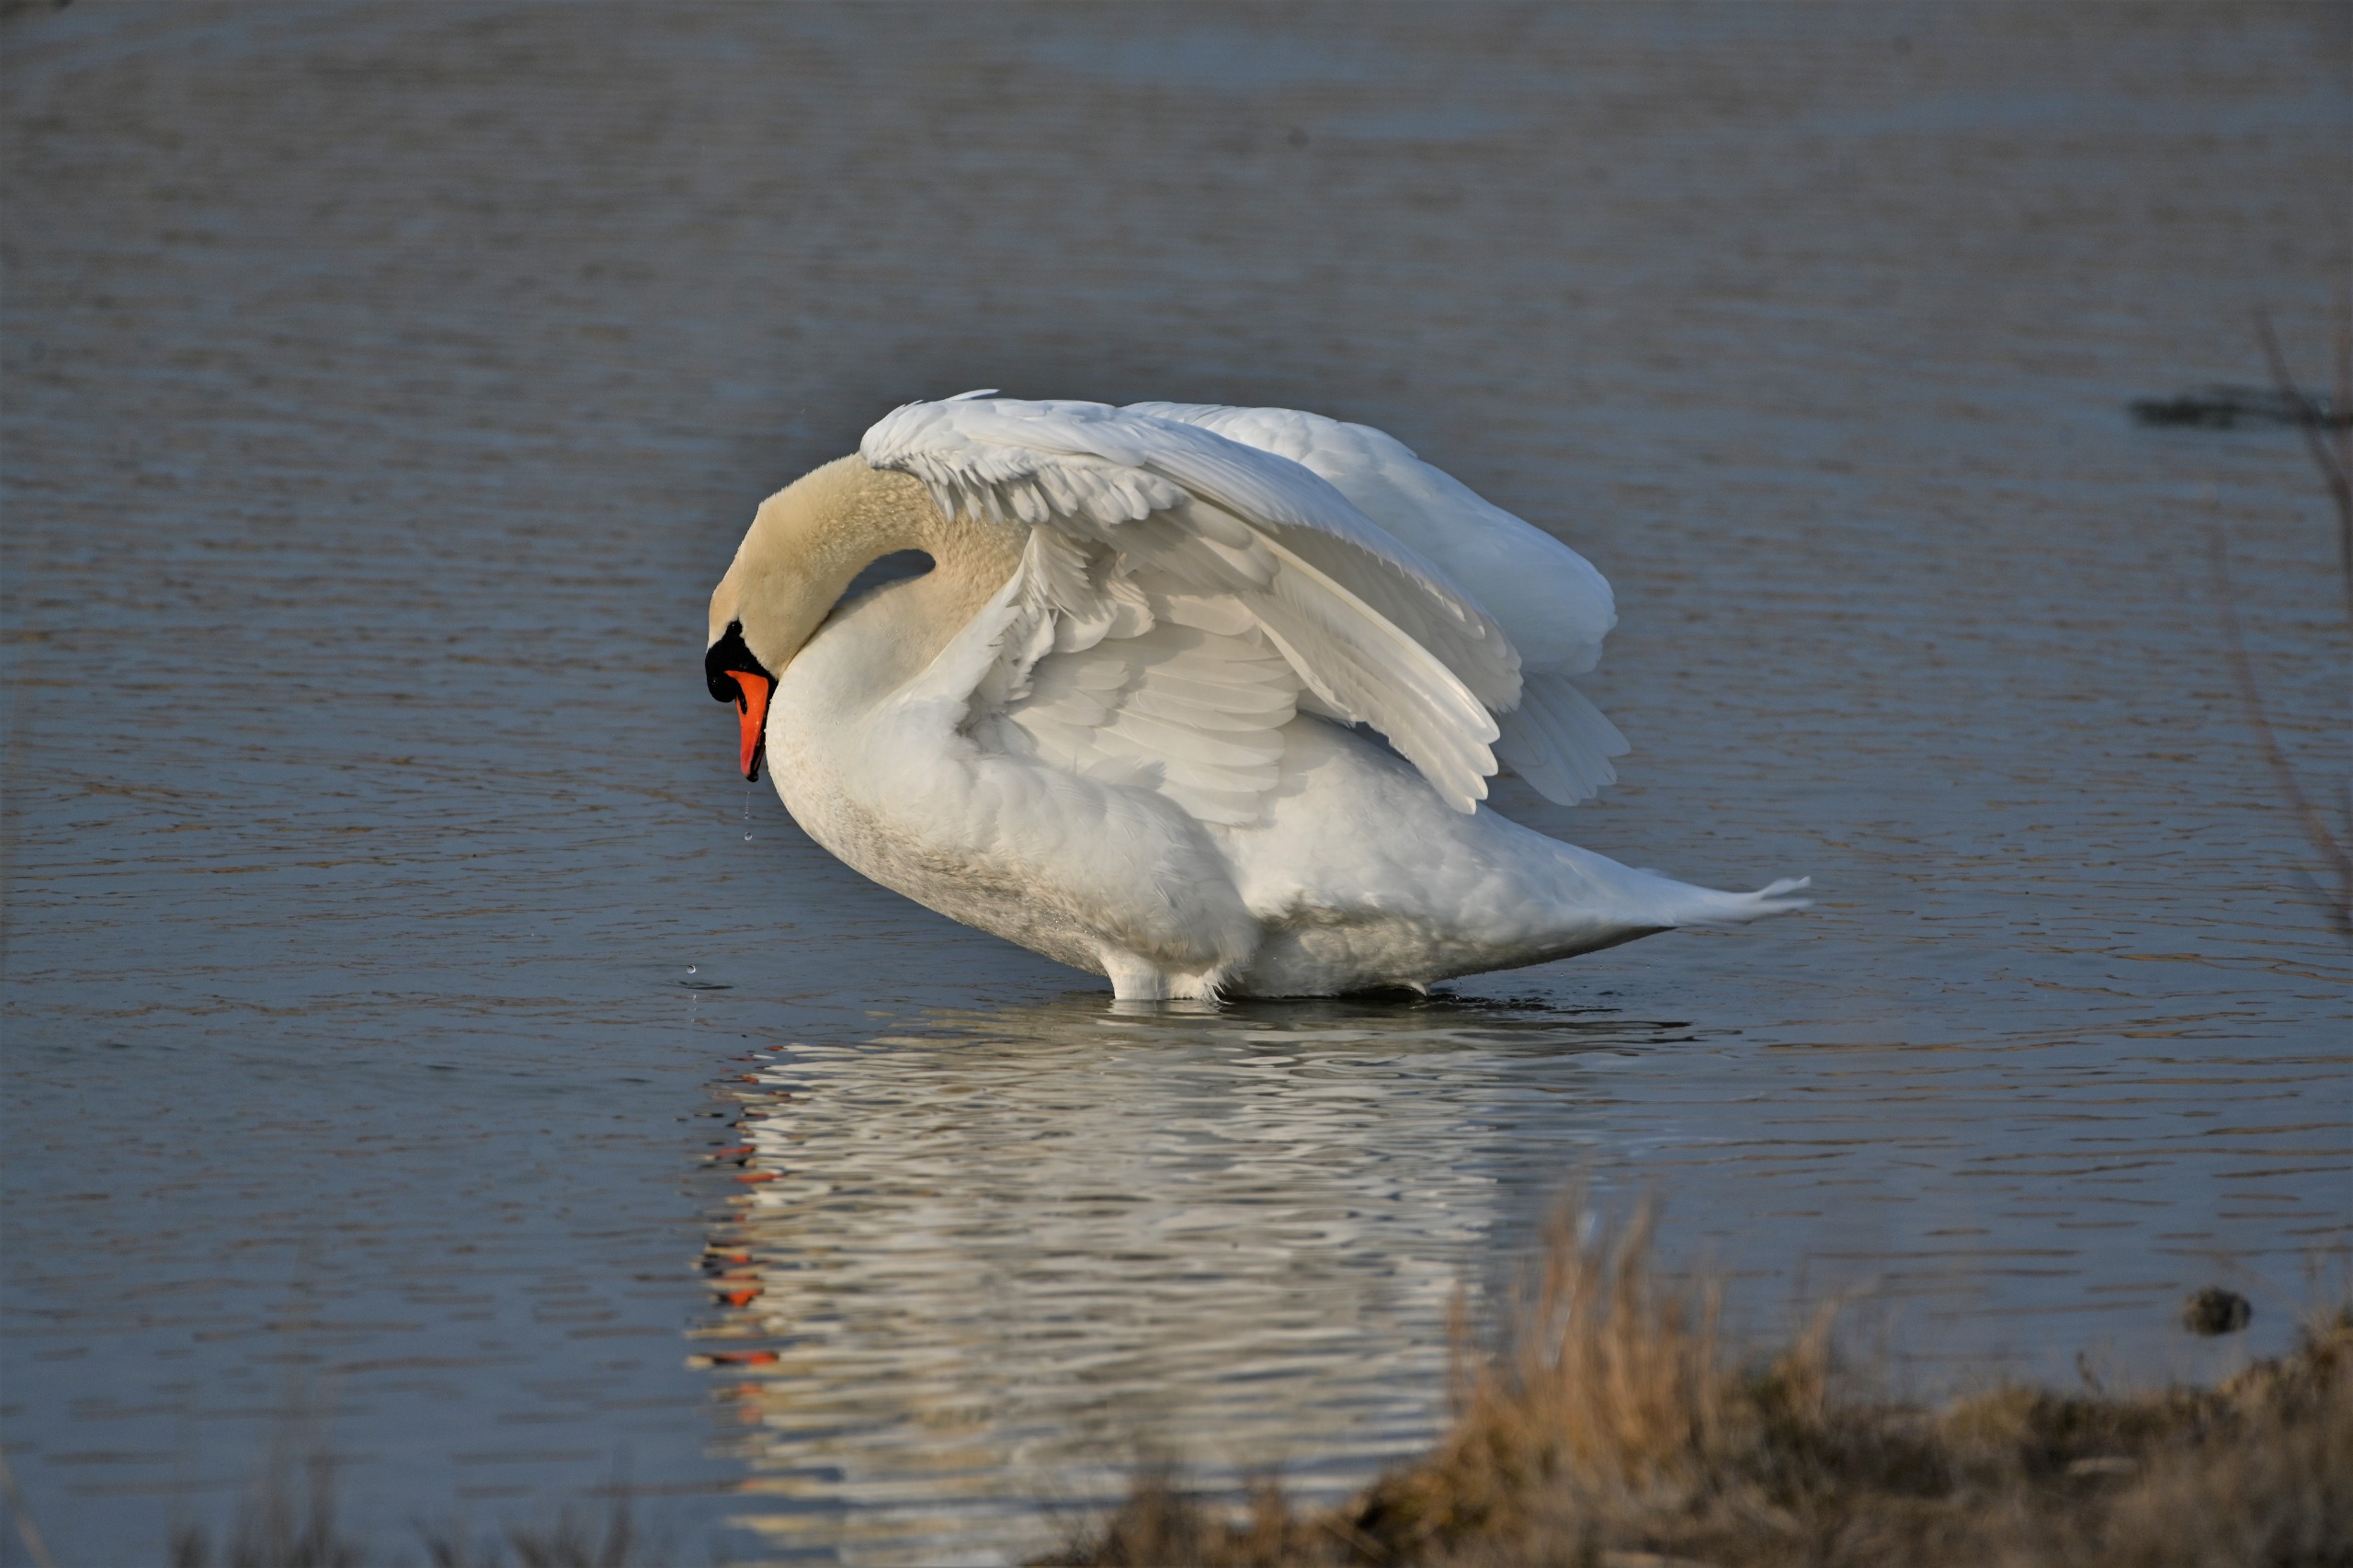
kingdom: Animalia
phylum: Chordata
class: Aves
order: Anseriformes
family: Anatidae
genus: Cygnus
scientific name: Cygnus olor
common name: Knopsvane
